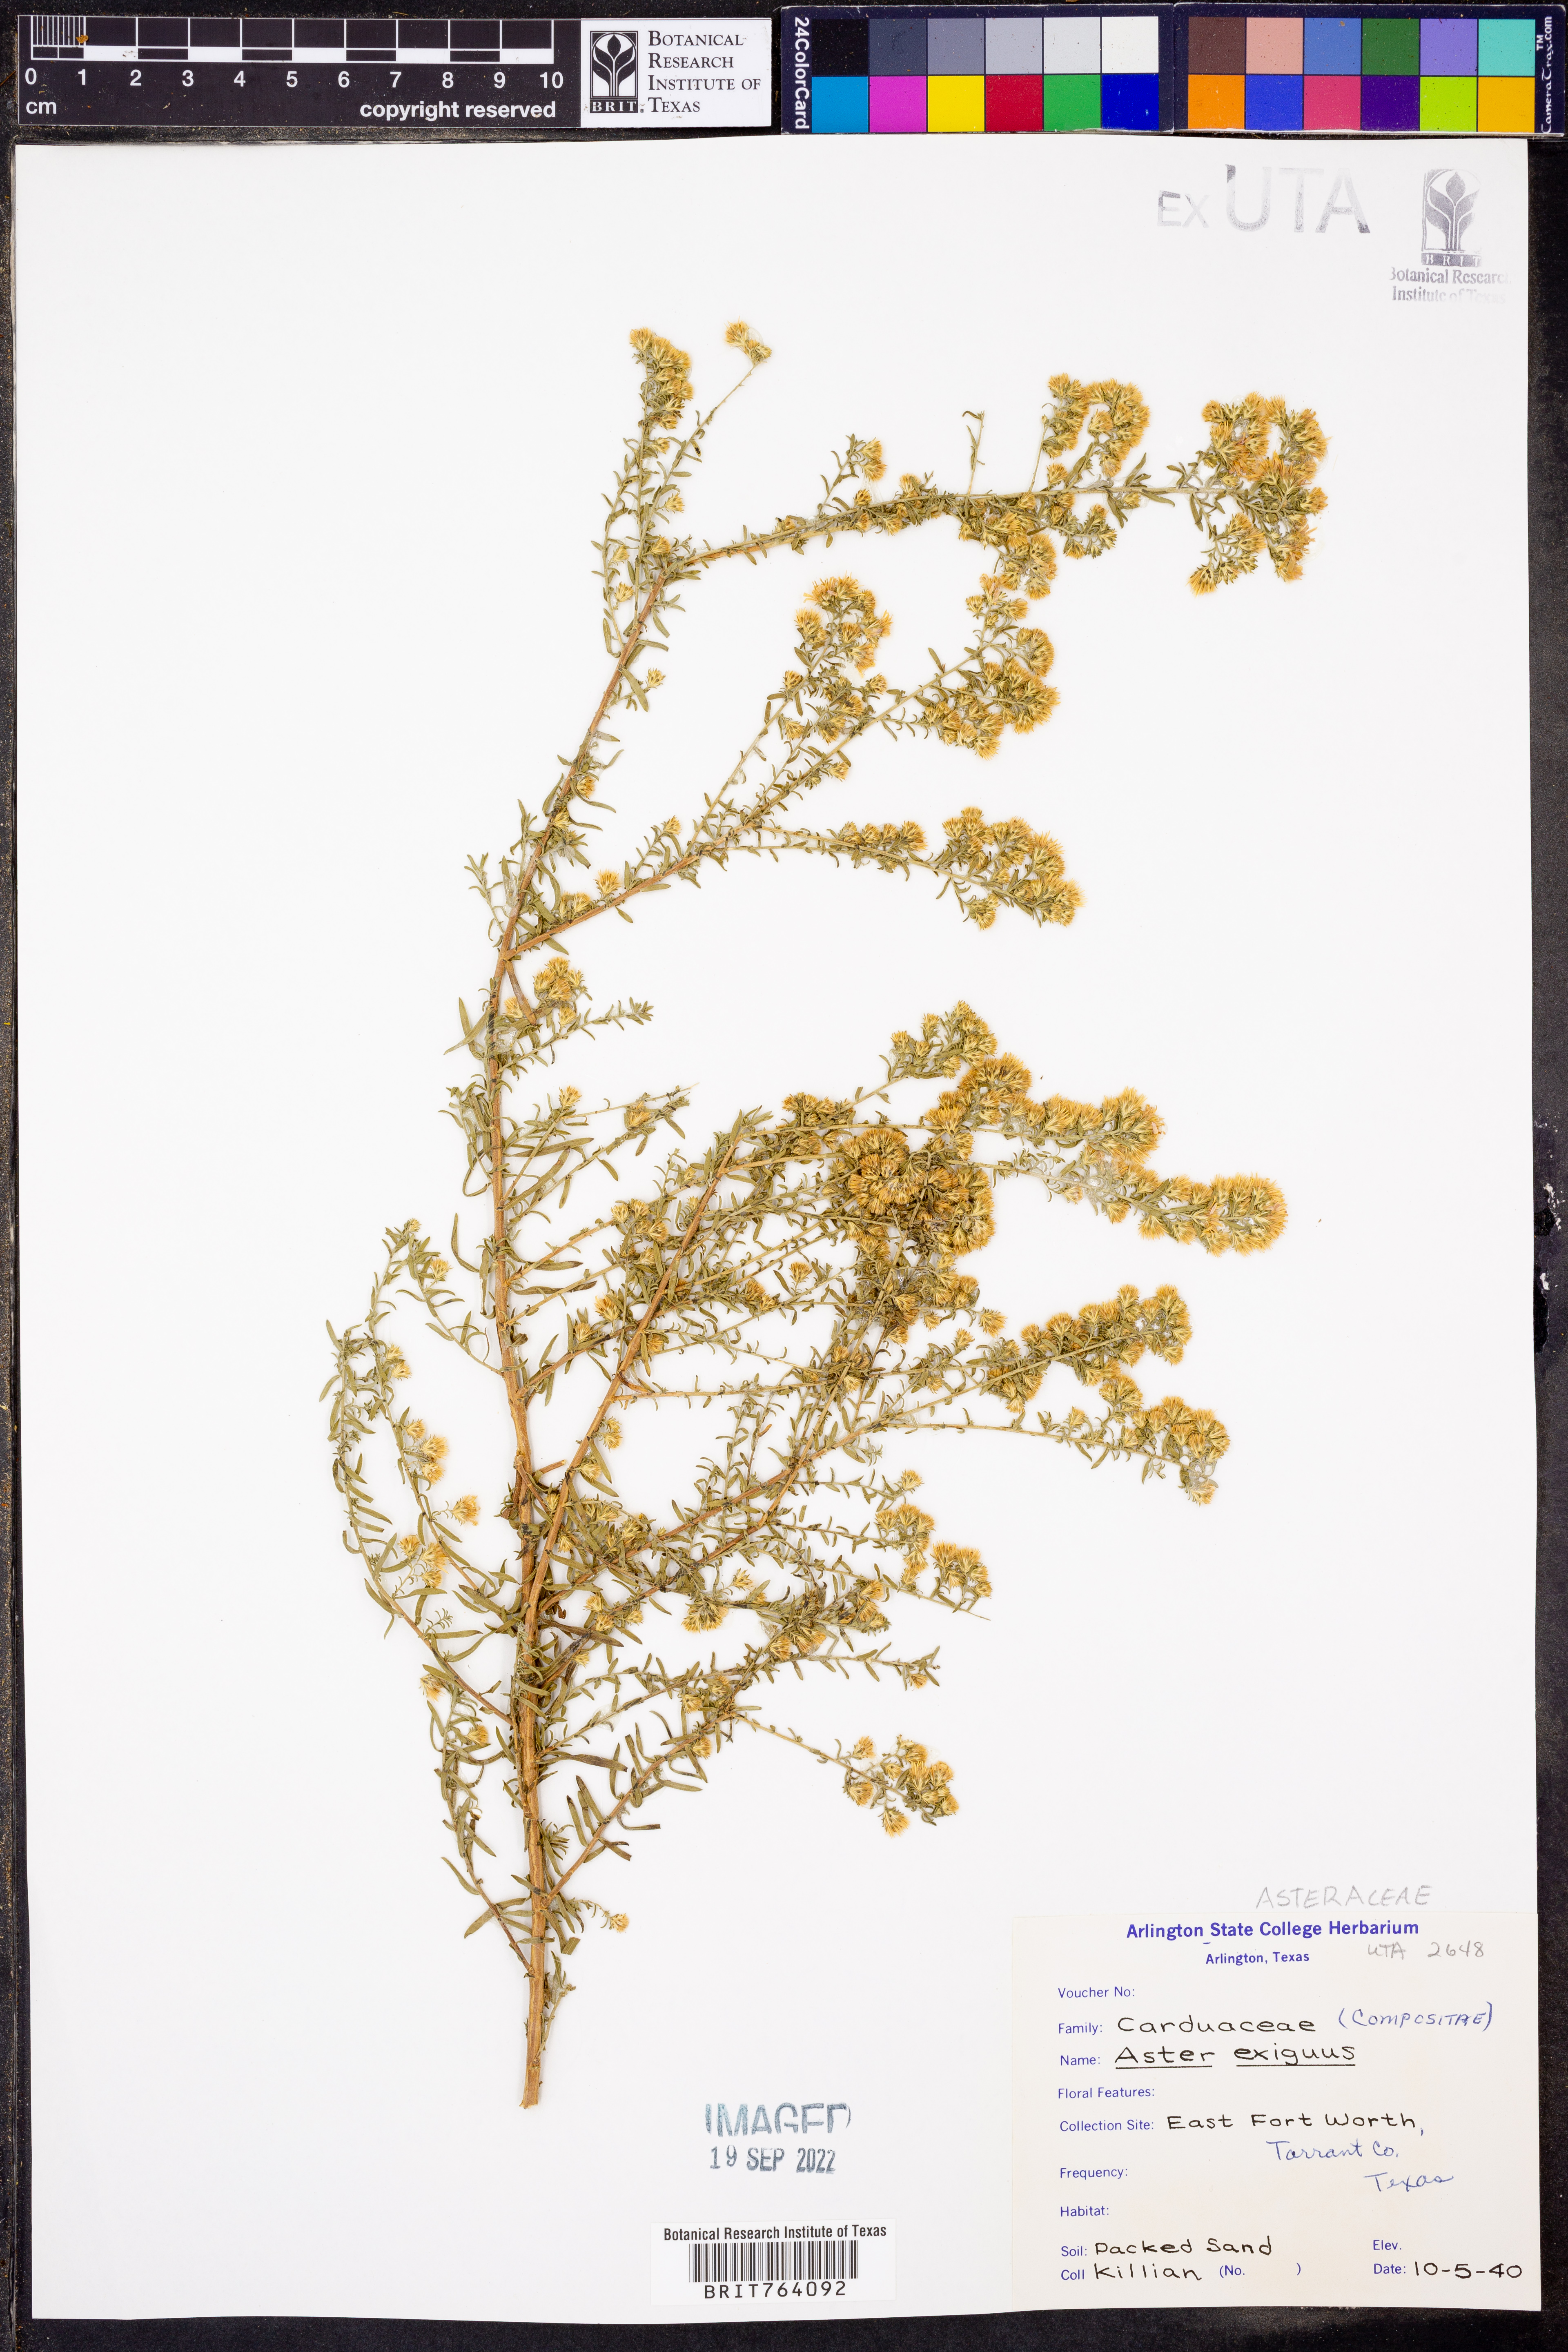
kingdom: Plantae
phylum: Tracheophyta
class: Magnoliopsida
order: Asterales
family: Asteraceae
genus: Symphyotrichum
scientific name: Symphyotrichum ericoides
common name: Heath aster
